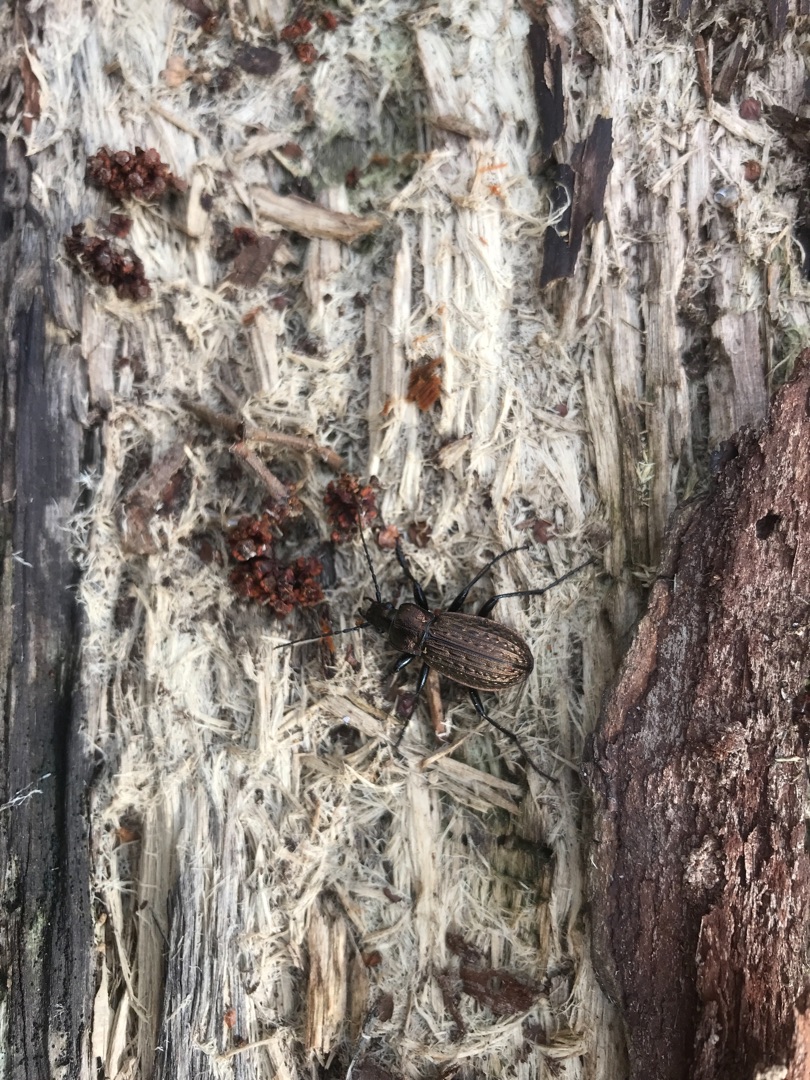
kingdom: Animalia
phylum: Arthropoda
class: Insecta
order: Coleoptera
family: Carabidae
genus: Carabus
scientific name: Carabus granulatus
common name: Kornet løber
